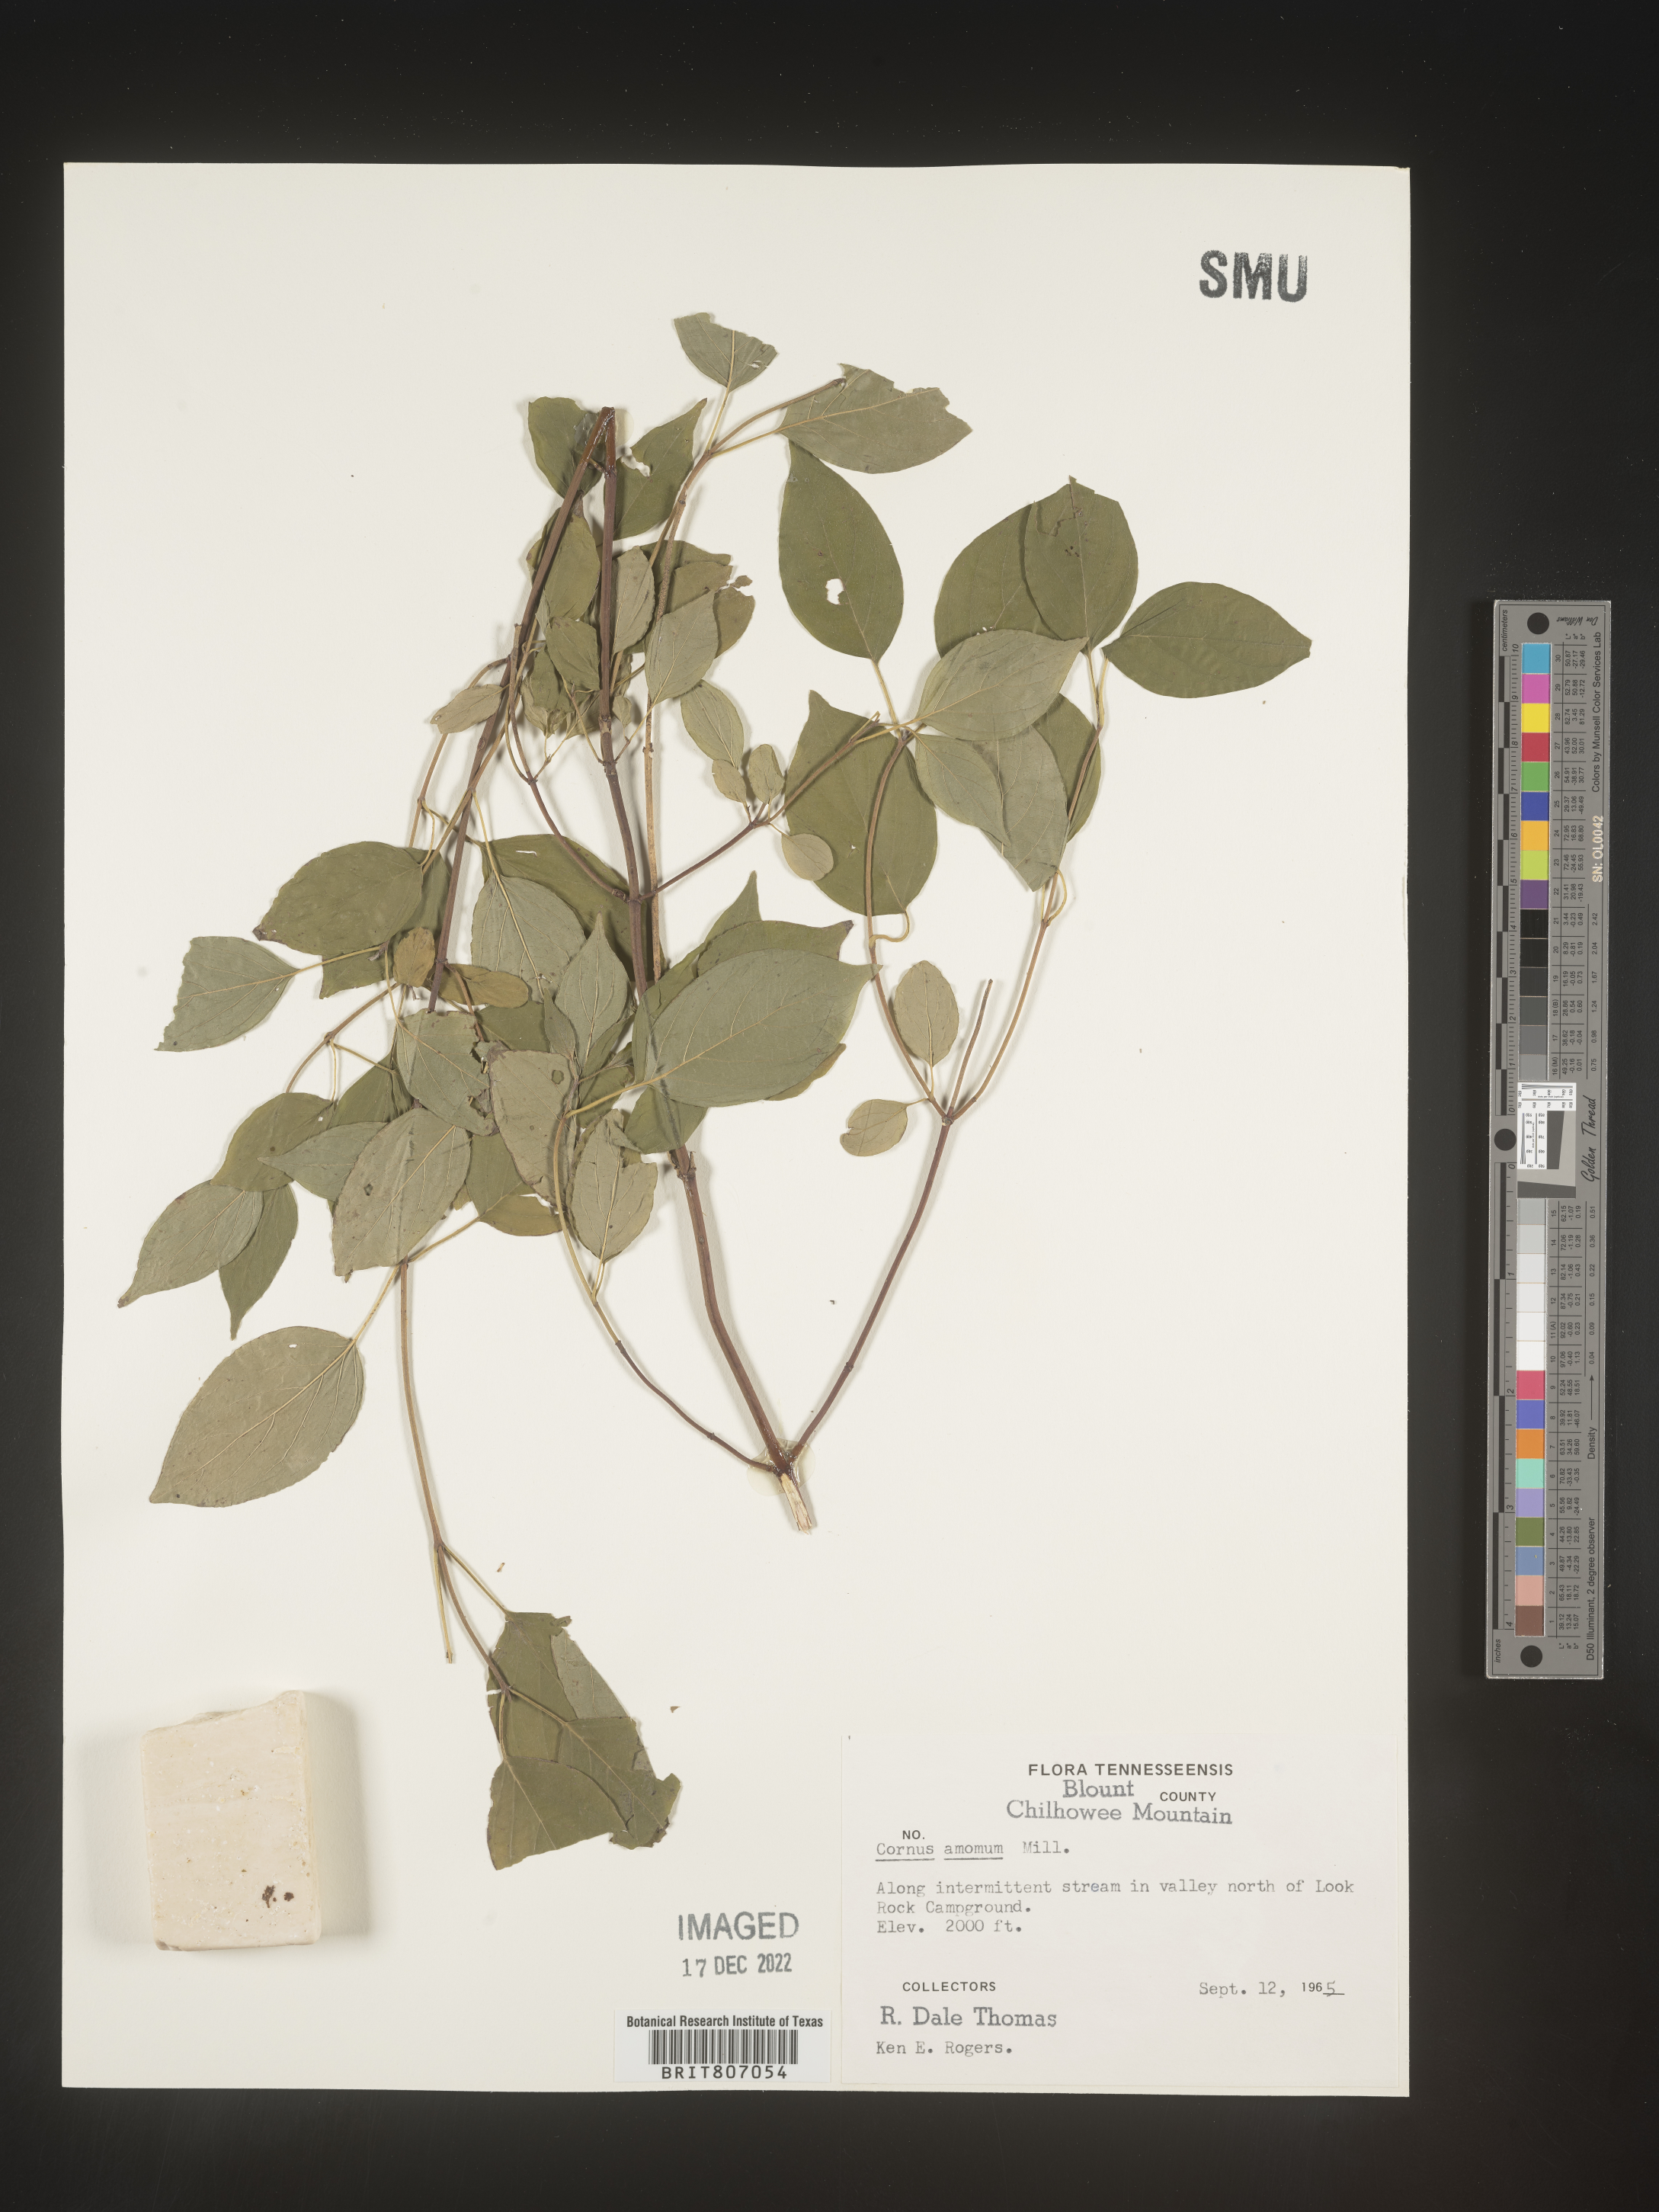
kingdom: Plantae
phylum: Tracheophyta
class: Magnoliopsida
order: Cornales
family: Cornaceae
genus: Cornus
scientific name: Cornus amomum
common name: Silky dogwood
